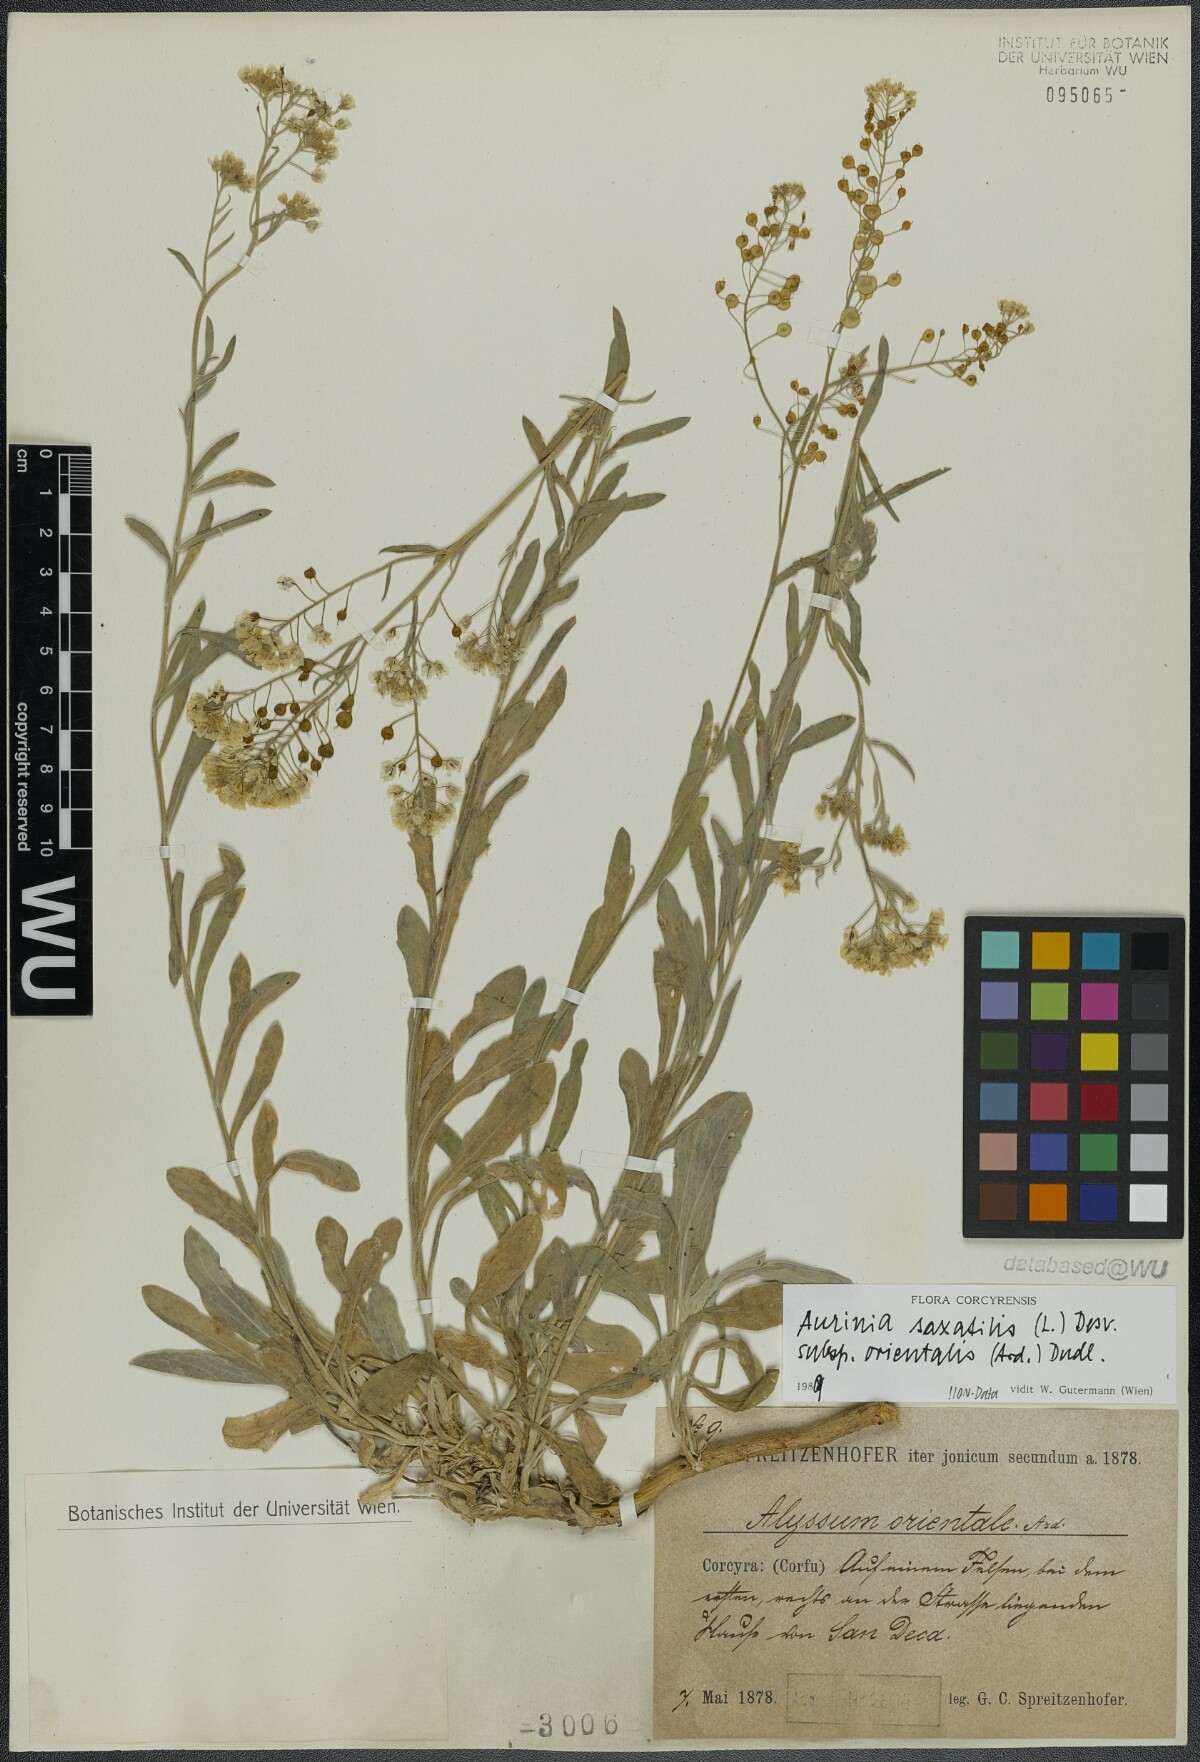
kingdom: Plantae
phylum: Tracheophyta
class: Magnoliopsida
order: Brassicales
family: Brassicaceae
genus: Aurinia
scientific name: Aurinia saxatilis
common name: Golden-tuft alyssum
